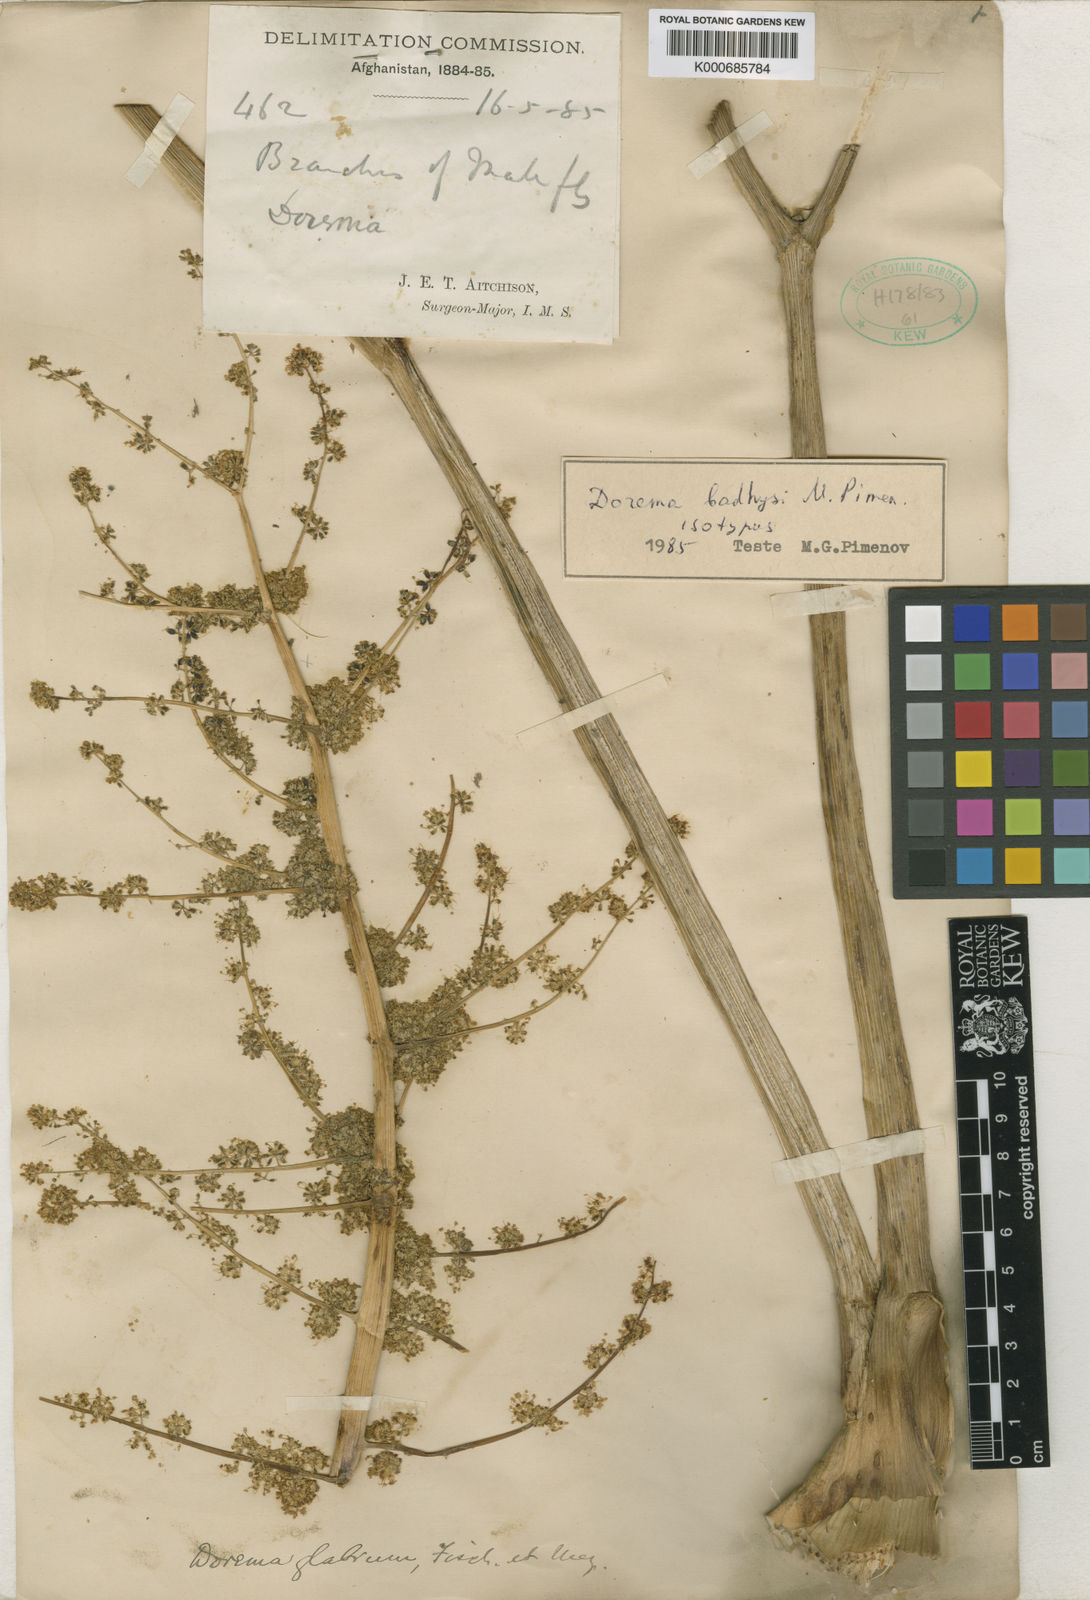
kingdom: Plantae
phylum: Tracheophyta
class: Magnoliopsida
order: Apiales
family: Apiaceae
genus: Ferula
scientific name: Ferula hyrcana
